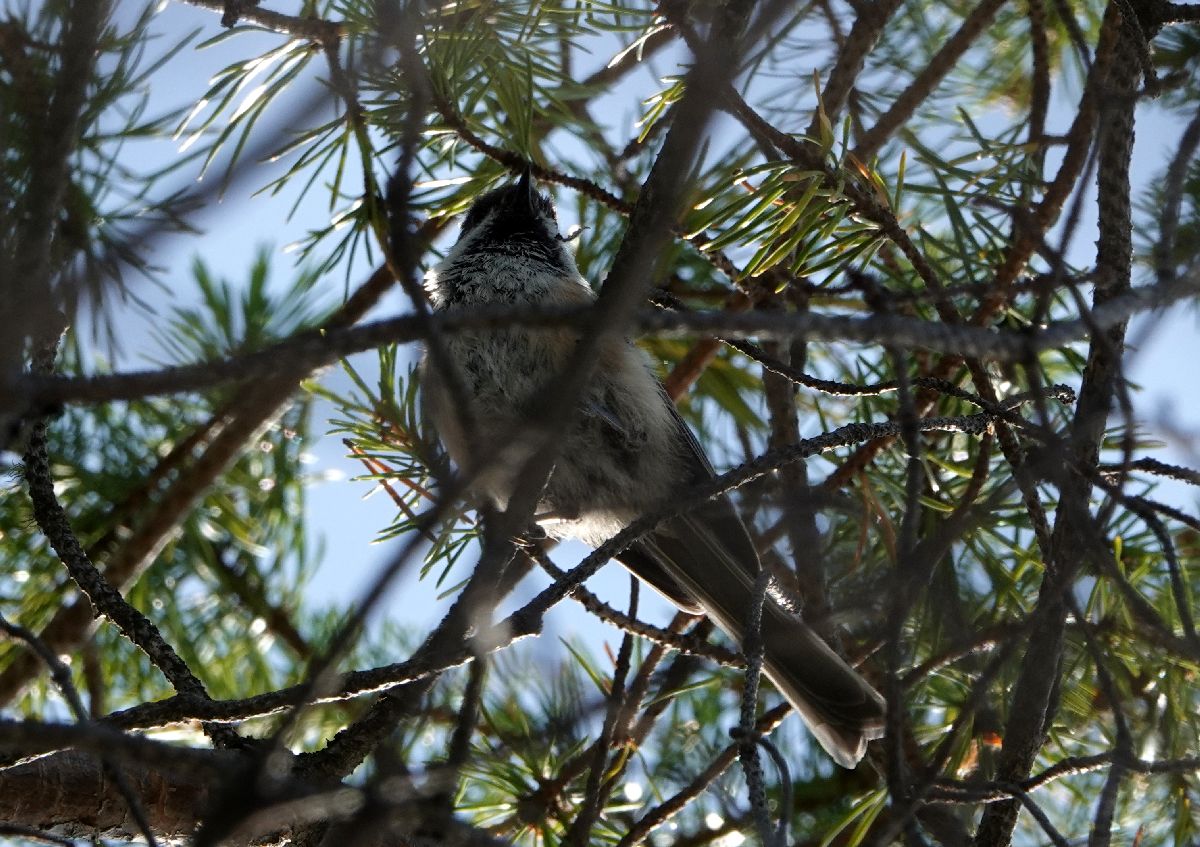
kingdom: Animalia
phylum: Chordata
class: Aves
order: Passeriformes
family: Paridae
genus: Poecile
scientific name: Poecile cinctus
